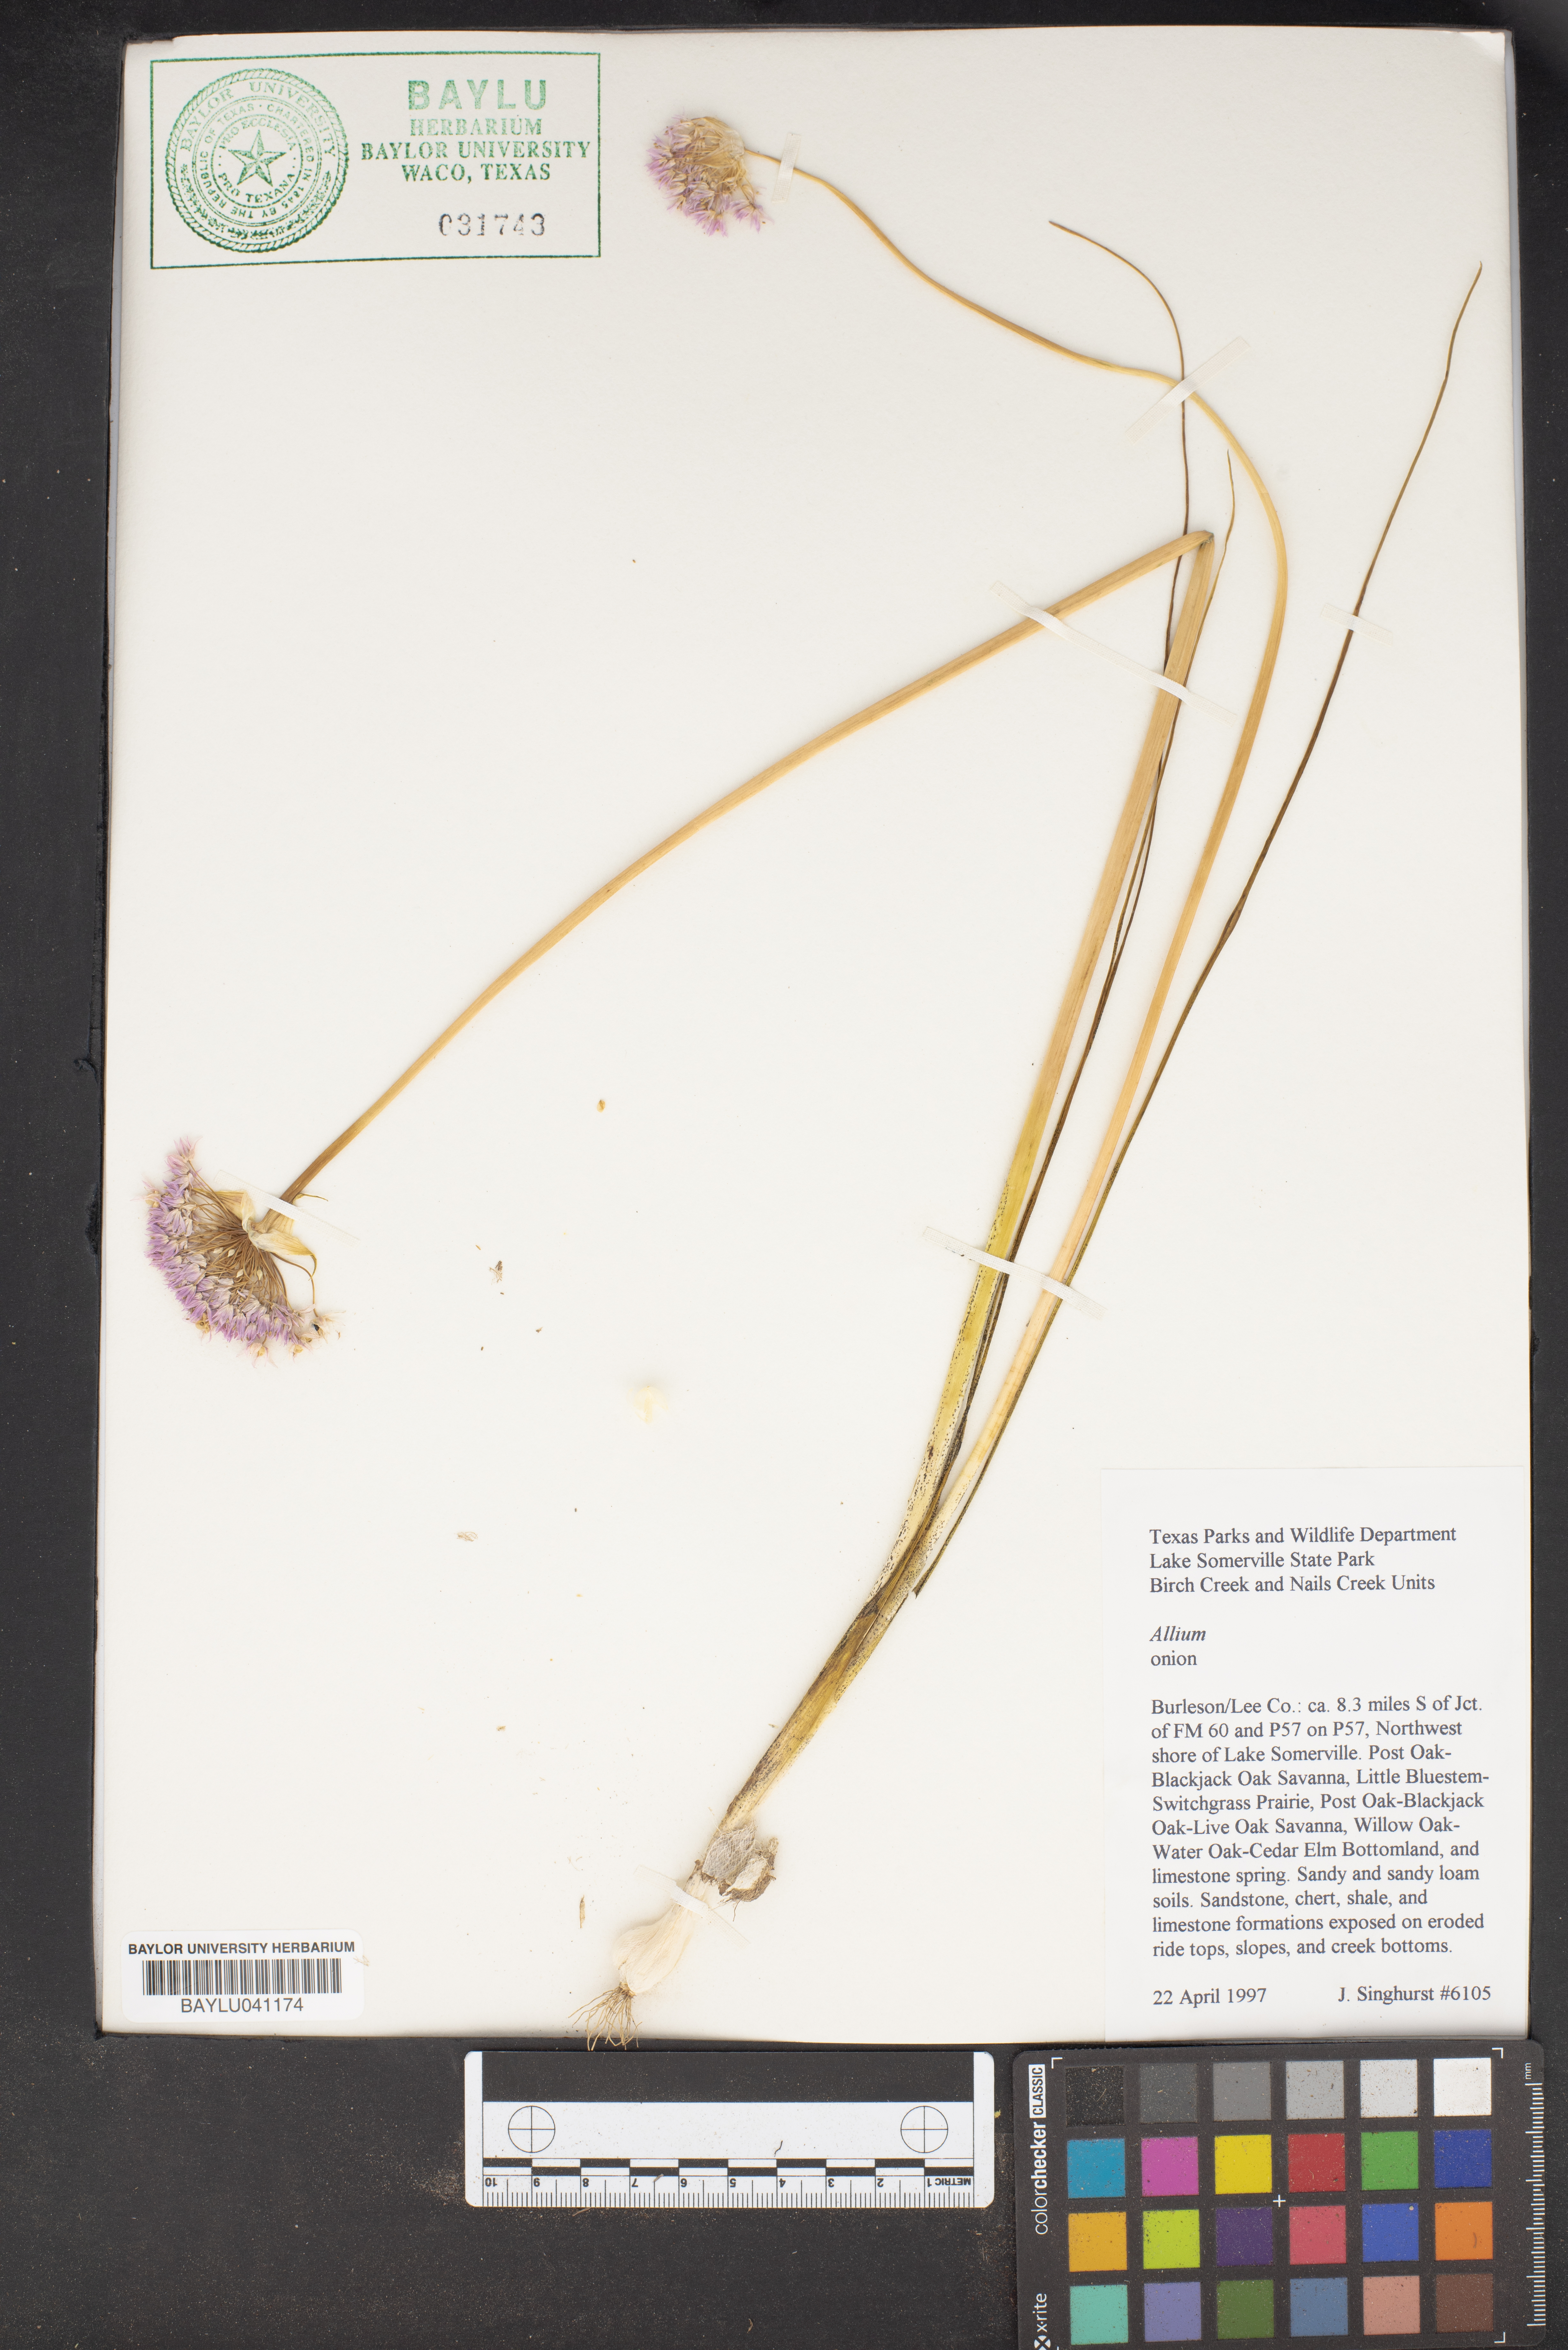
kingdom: Plantae
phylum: Tracheophyta
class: Liliopsida
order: Asparagales
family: Amaryllidaceae
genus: Allium
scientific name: Allium
